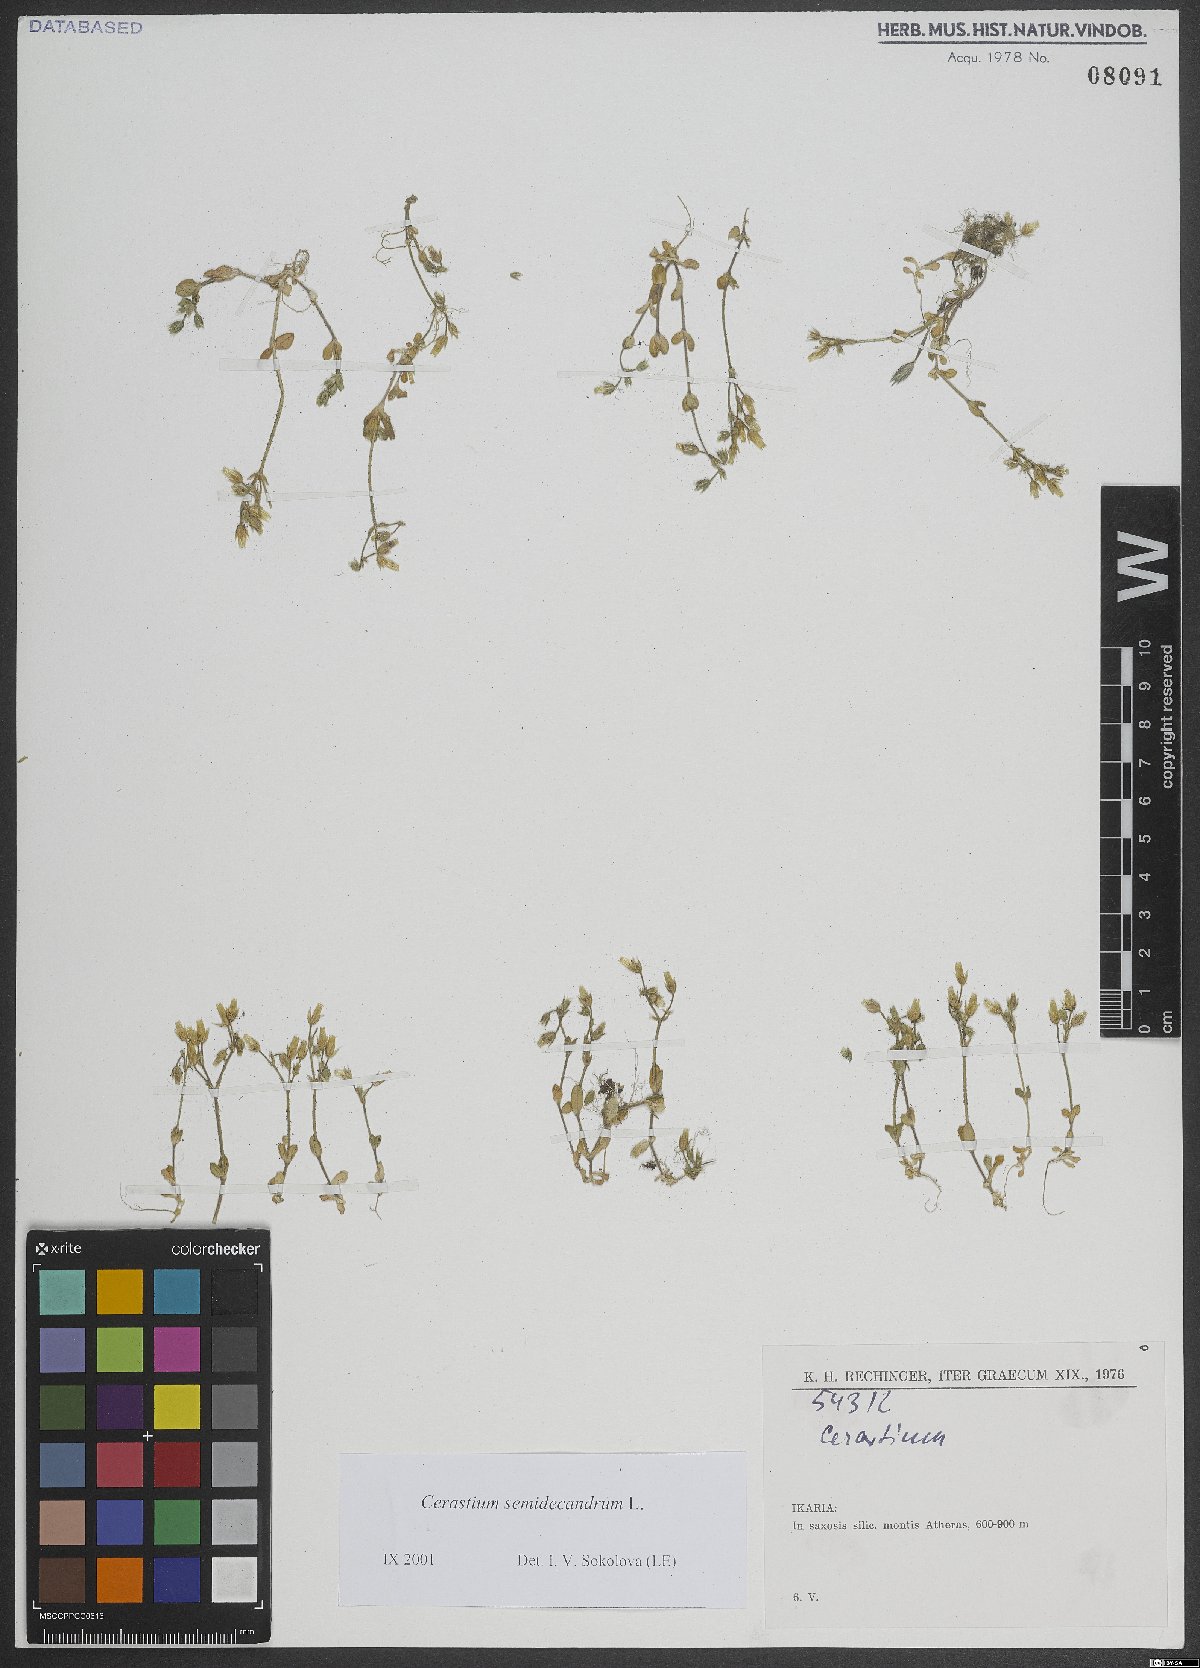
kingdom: Plantae
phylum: Tracheophyta
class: Magnoliopsida
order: Caryophyllales
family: Caryophyllaceae
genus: Cerastium
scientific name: Cerastium semidecandrum
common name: Little mouse-ear
